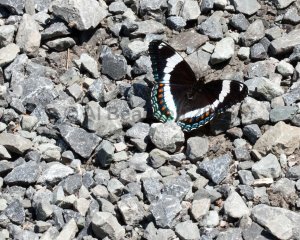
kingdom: Animalia
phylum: Arthropoda
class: Insecta
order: Lepidoptera
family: Nymphalidae
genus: Limenitis
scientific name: Limenitis arthemis
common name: Red-spotted Admiral
